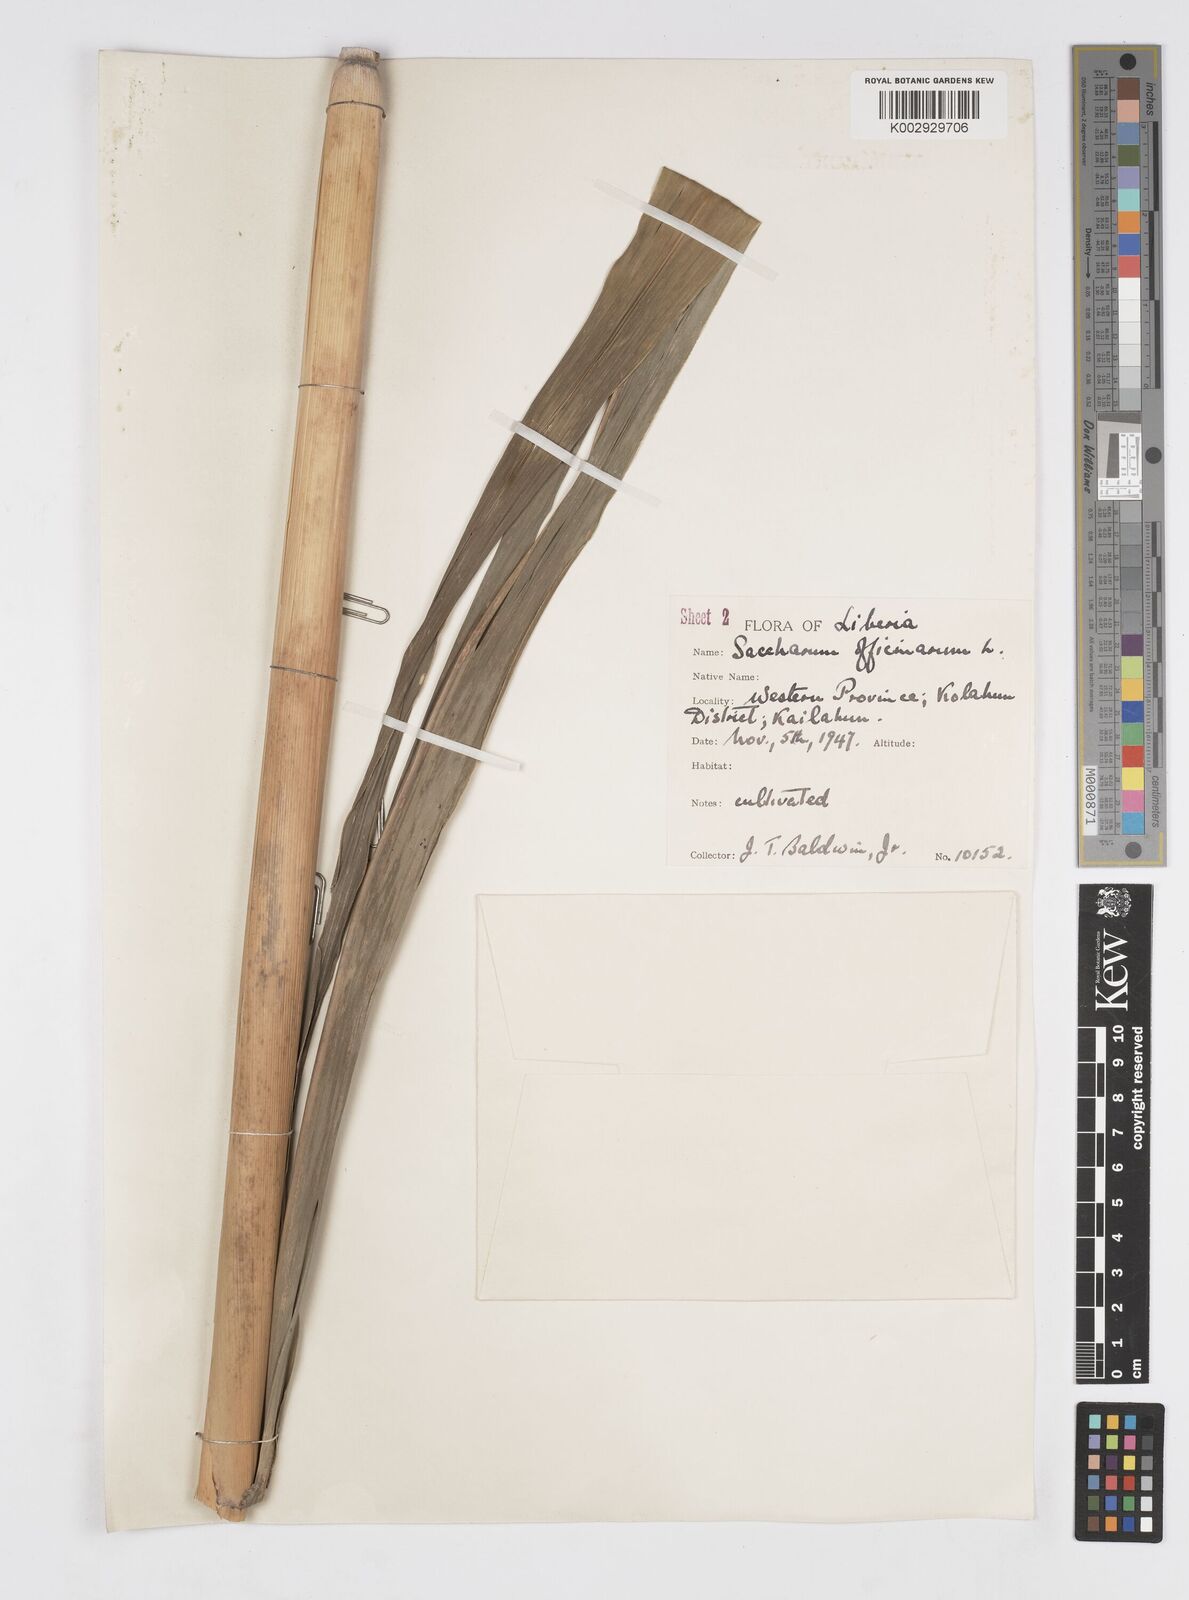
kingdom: Plantae
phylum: Tracheophyta
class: Liliopsida
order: Poales
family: Poaceae
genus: Saccharum
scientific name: Saccharum officinarum
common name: Sugarcane
